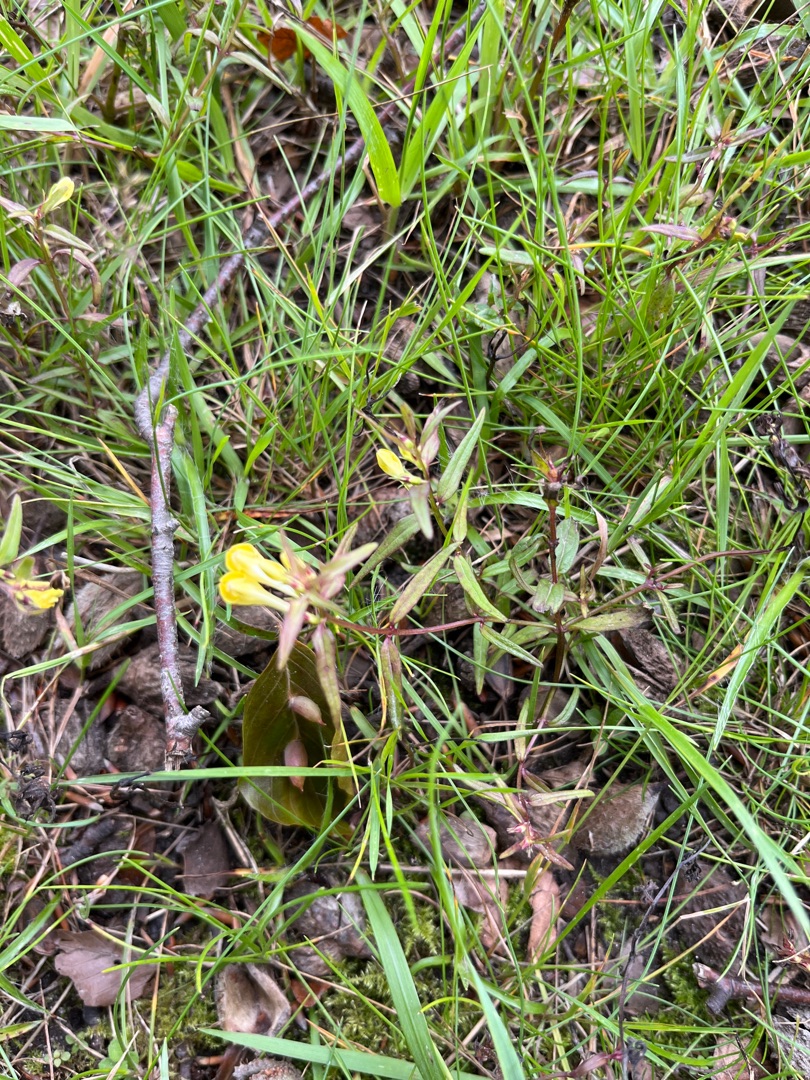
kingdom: Plantae
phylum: Tracheophyta
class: Magnoliopsida
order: Lamiales
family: Orobanchaceae
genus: Melampyrum
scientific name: Melampyrum pratense
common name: Almindelig kohvede
